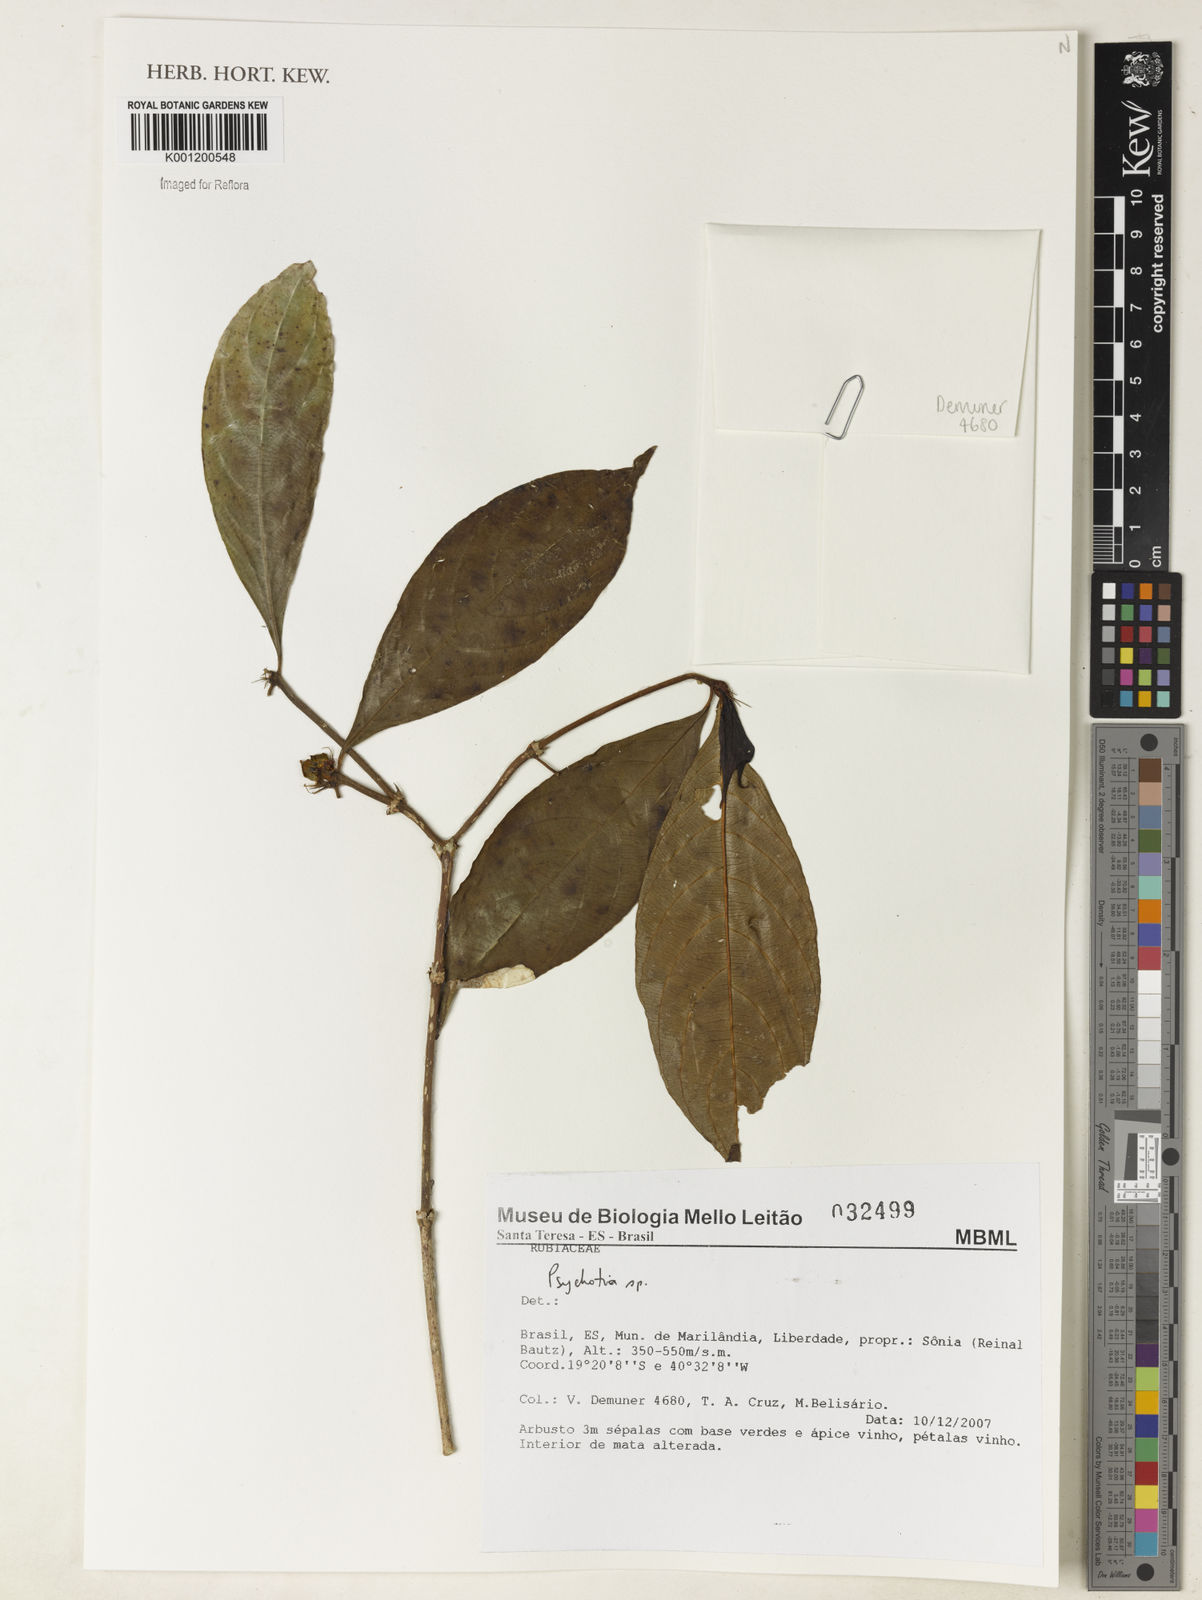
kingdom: Plantae
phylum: Tracheophyta
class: Magnoliopsida
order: Gentianales
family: Rubiaceae
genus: Psychotria
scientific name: Psychotria
